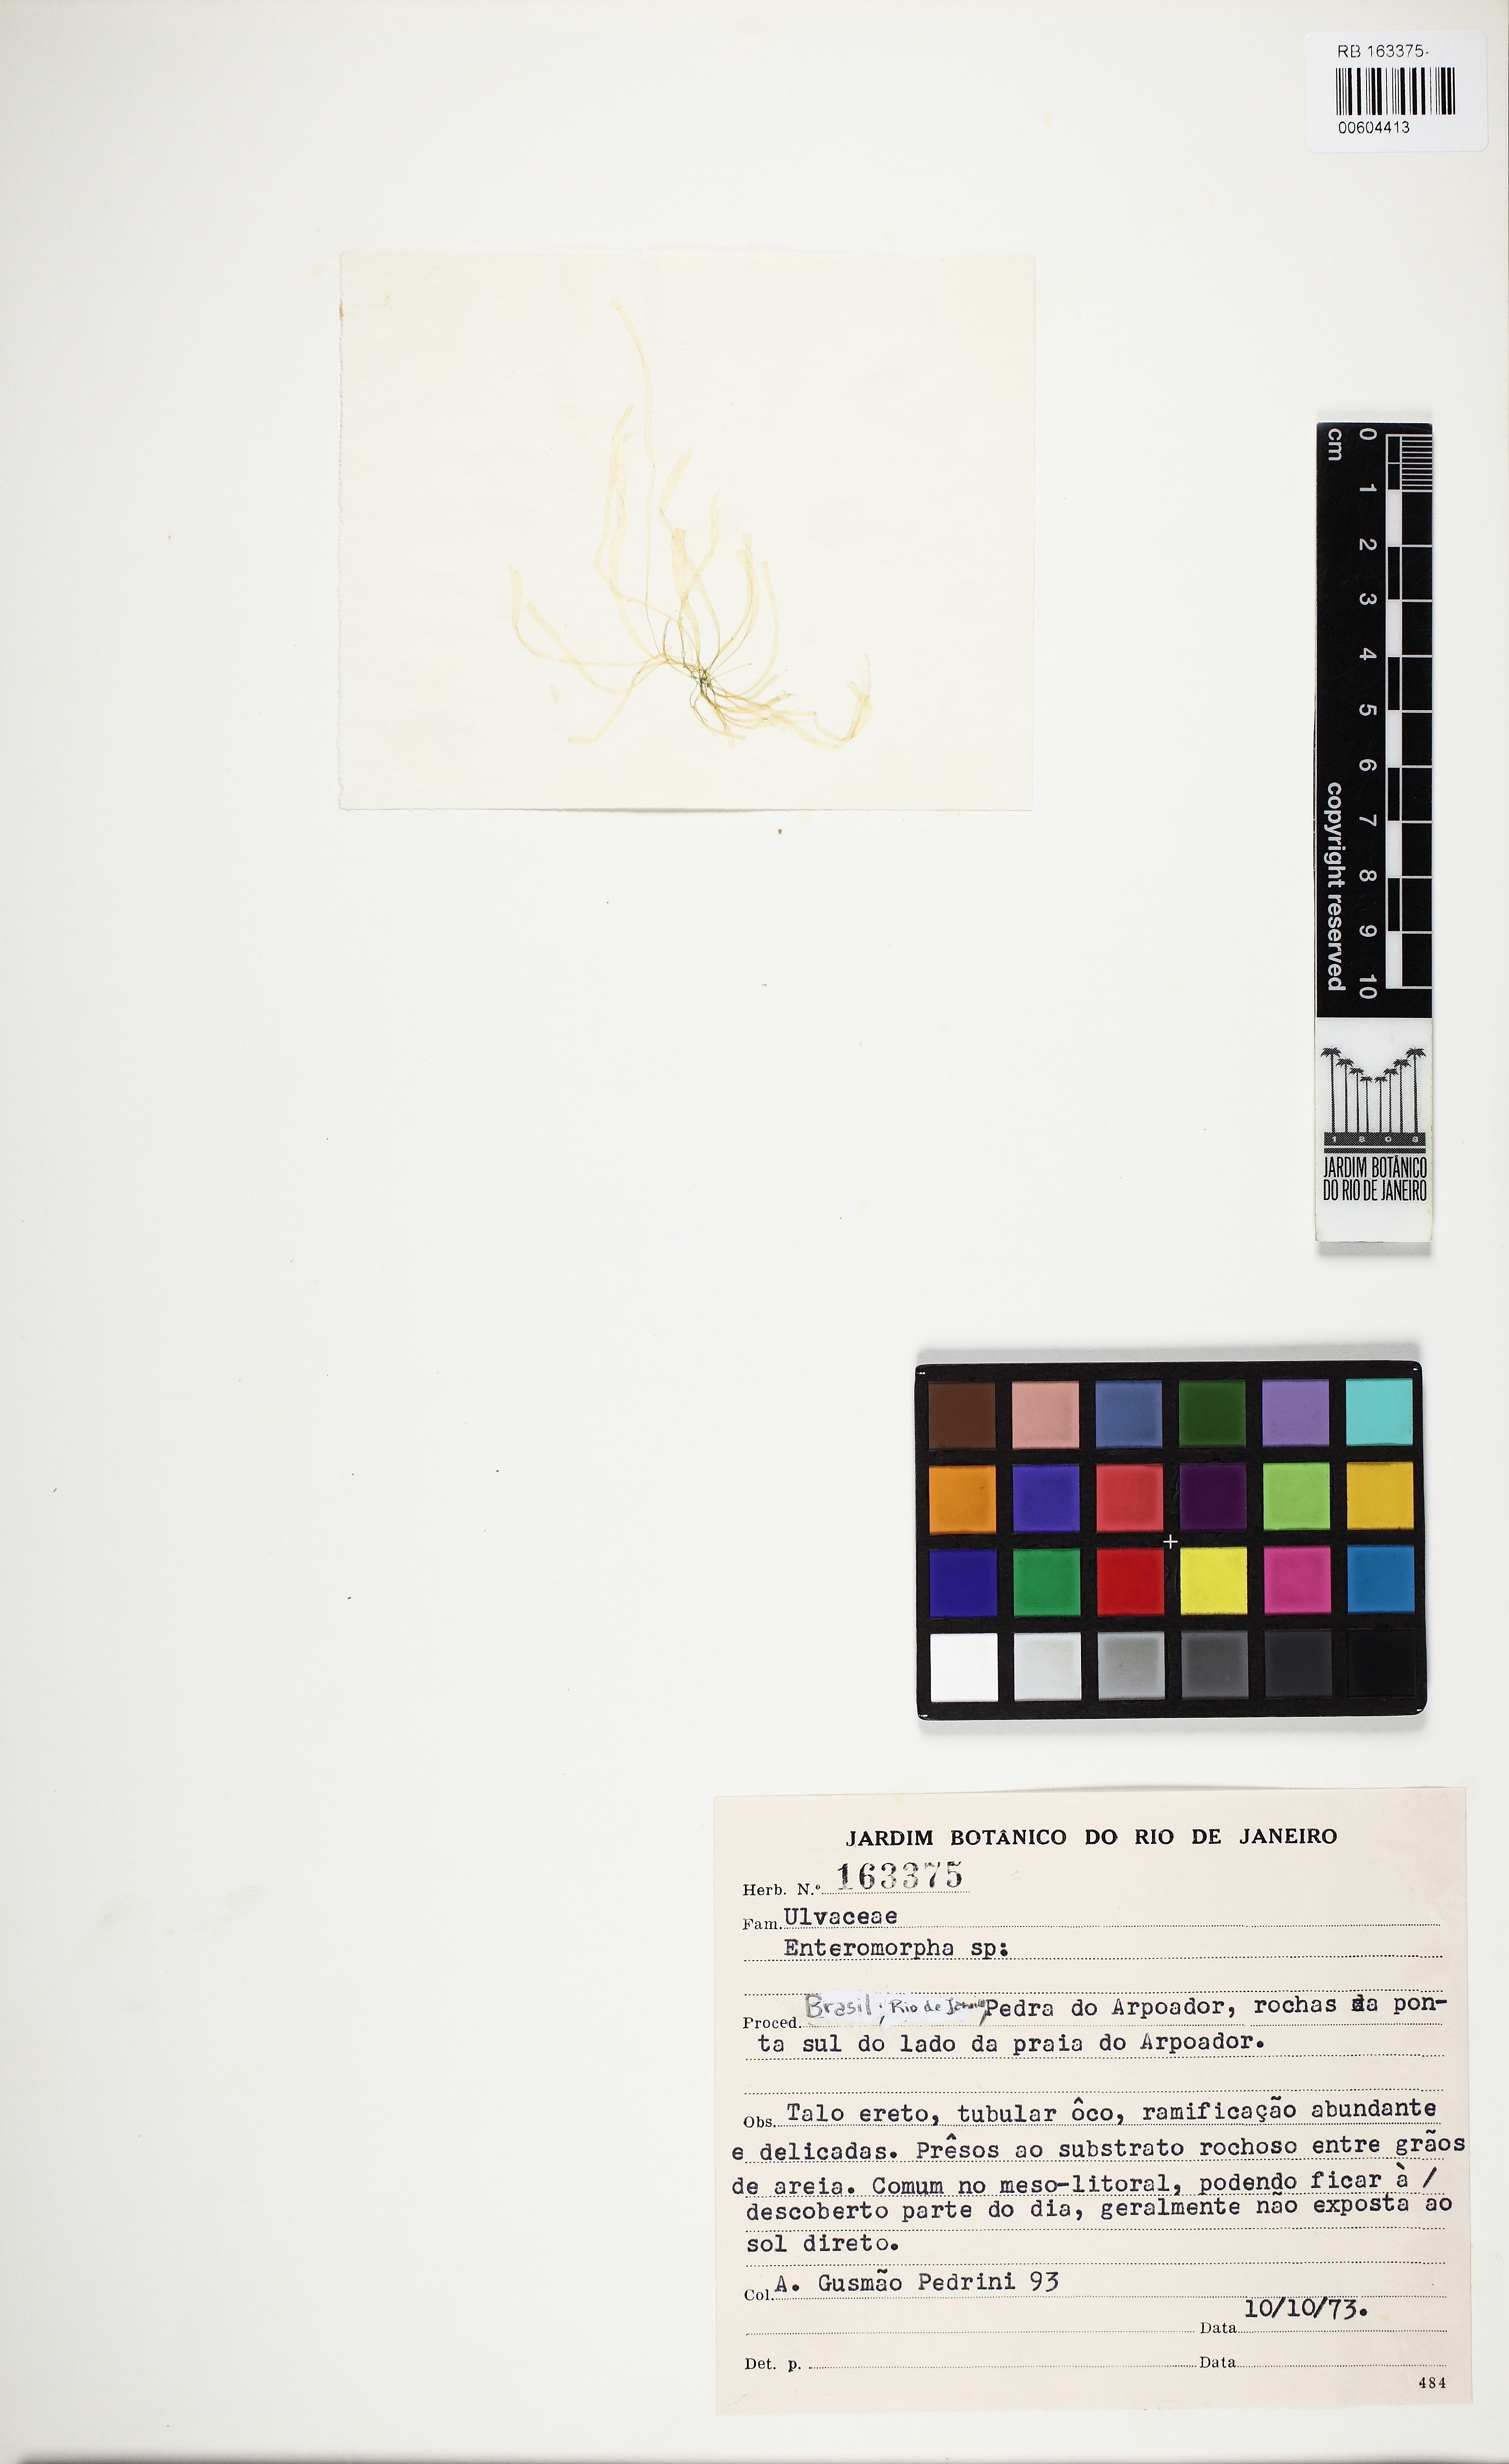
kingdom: Plantae
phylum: Chlorophyta
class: Ulvophyceae
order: Ulvales
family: Ulvaceae
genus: Ulva
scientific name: Ulva
